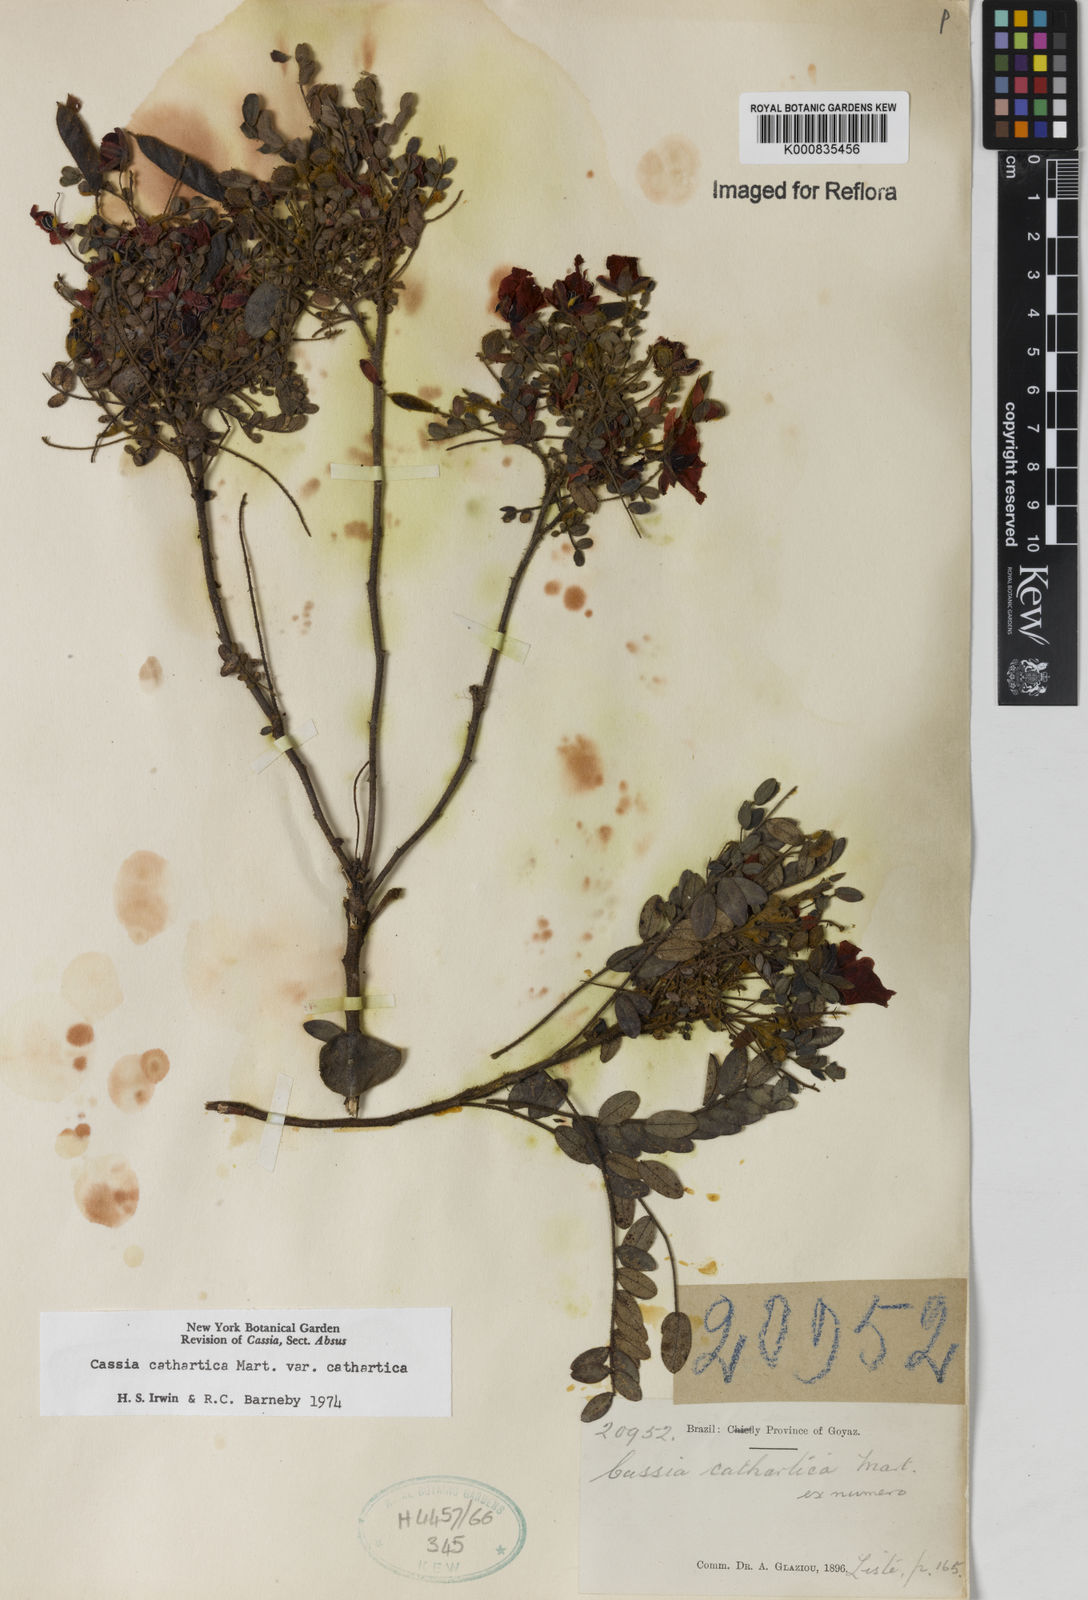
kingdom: Plantae
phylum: Tracheophyta
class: Magnoliopsida
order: Fabales
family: Fabaceae
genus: Chamaecrista
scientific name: Chamaecrista cathartica
